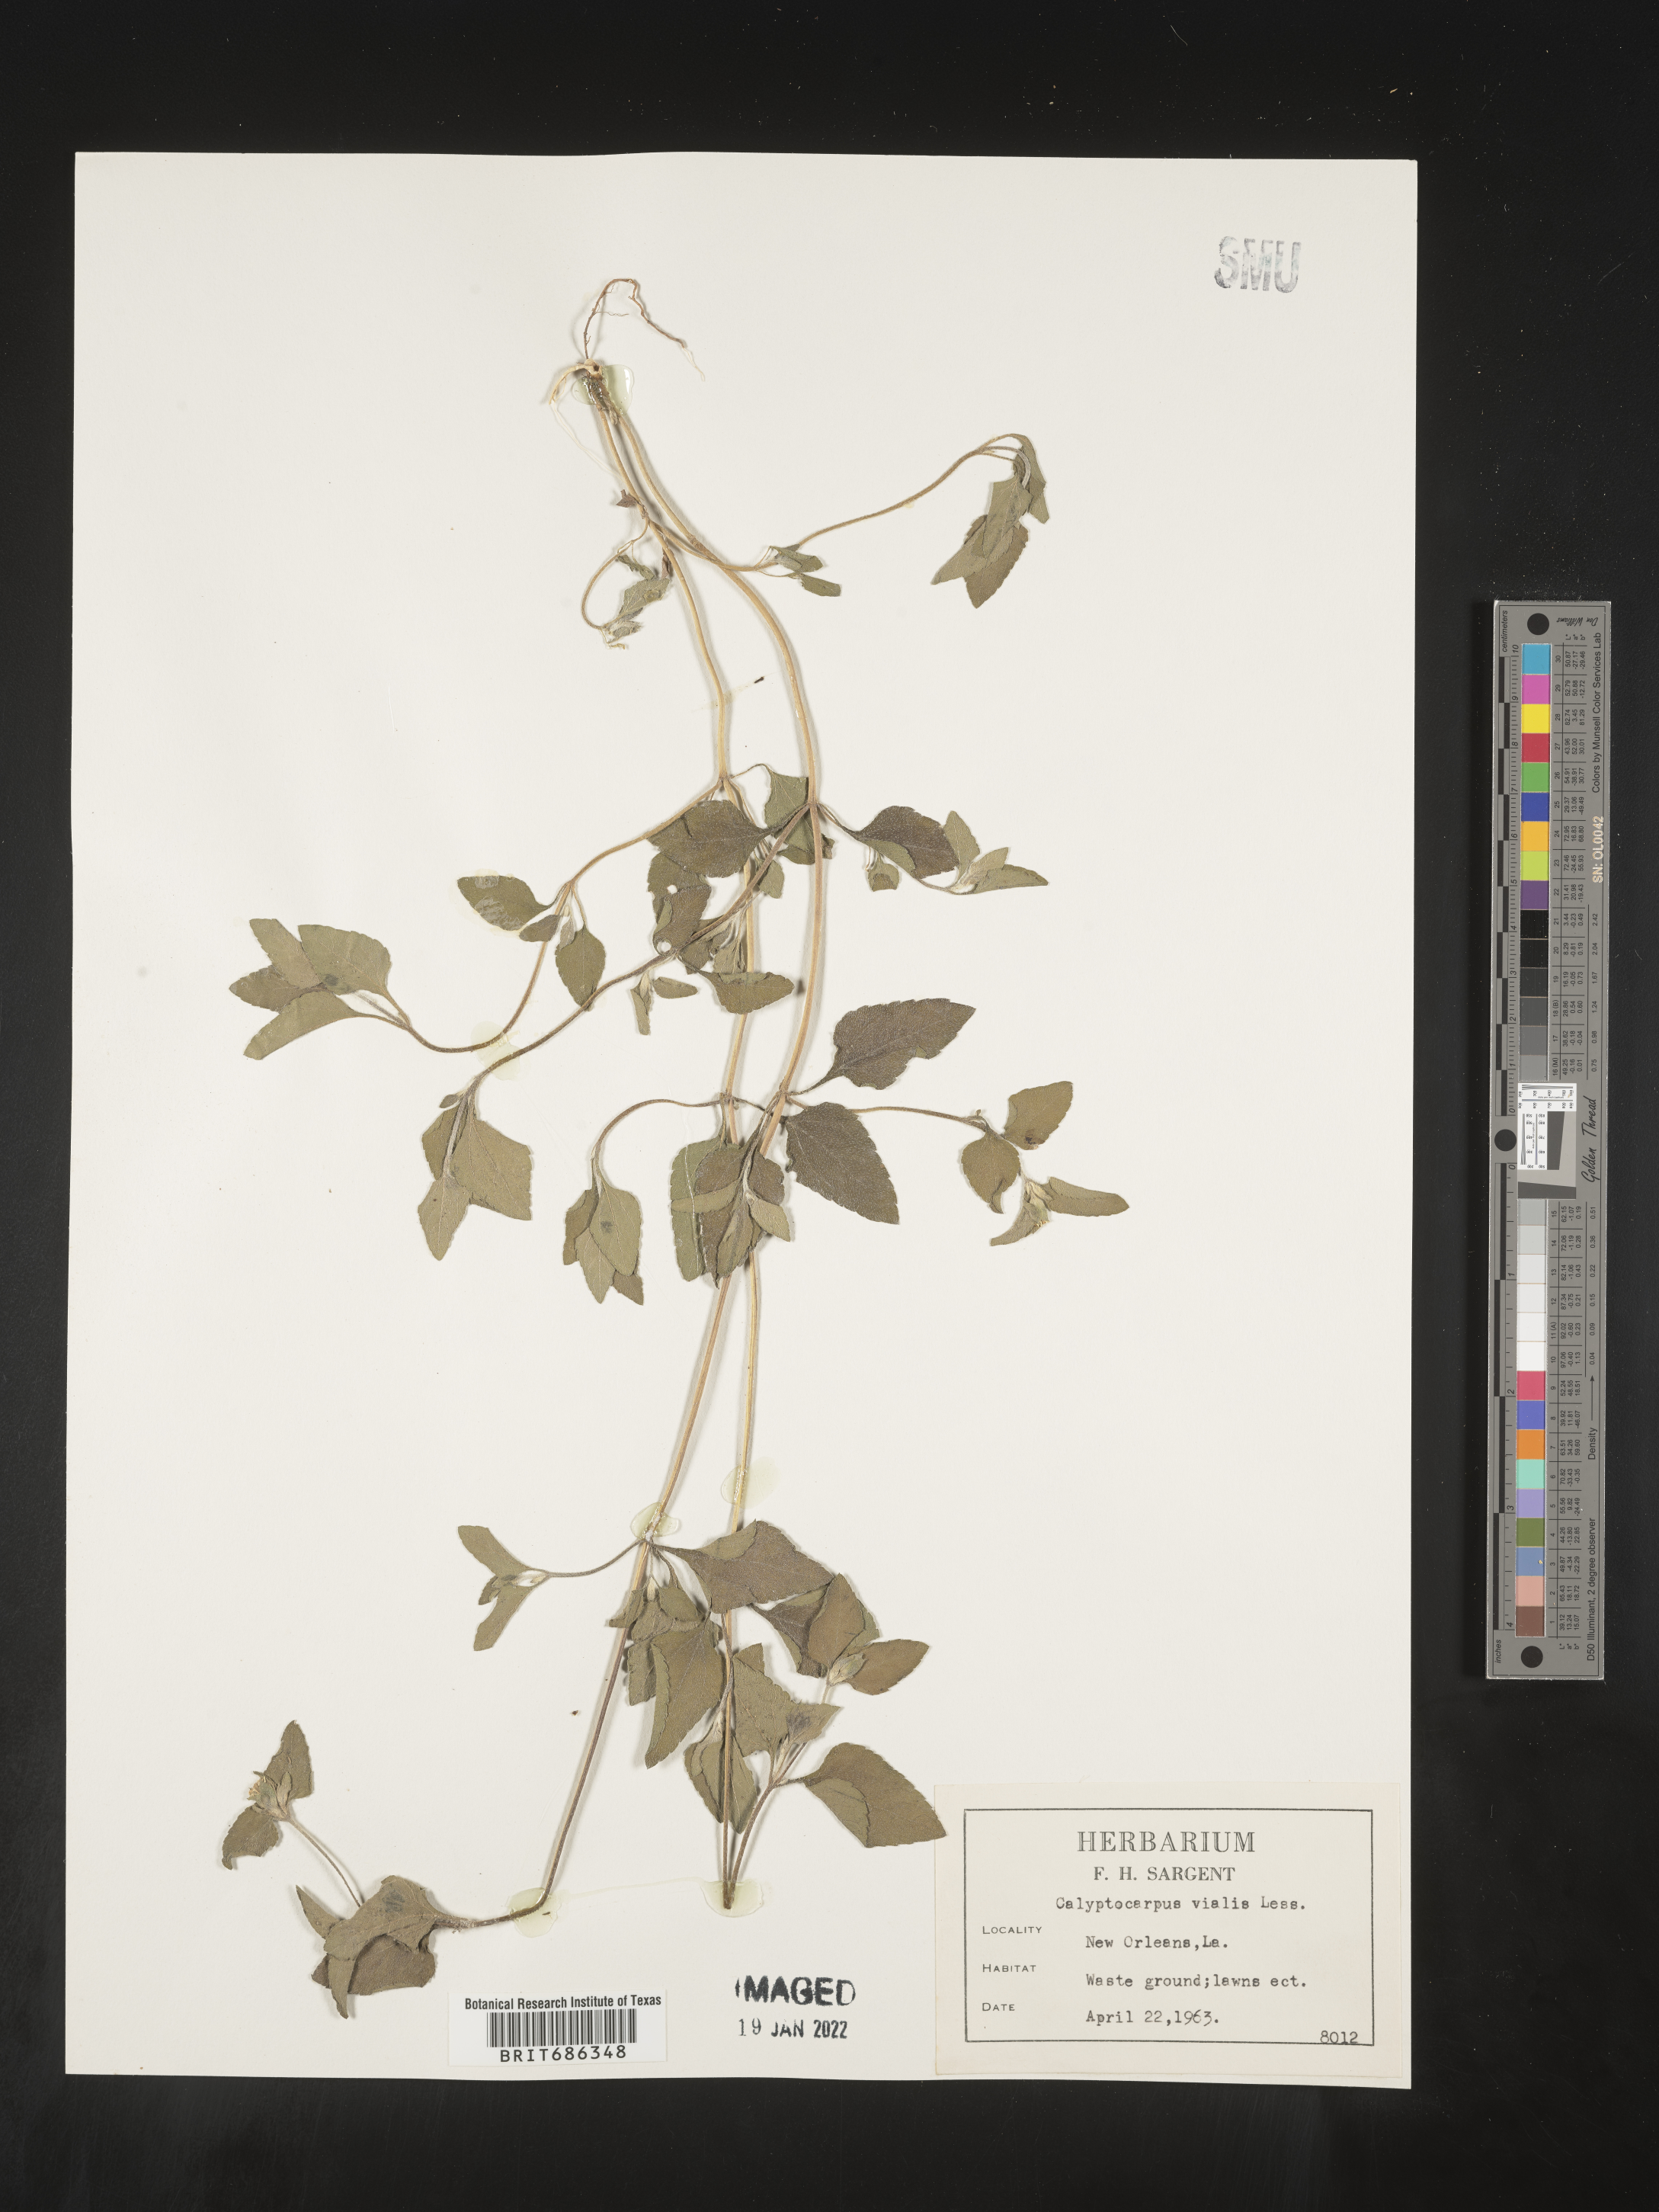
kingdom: Plantae
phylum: Tracheophyta
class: Magnoliopsida
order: Asterales
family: Asteraceae
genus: Calyptocarpus
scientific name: Calyptocarpus
